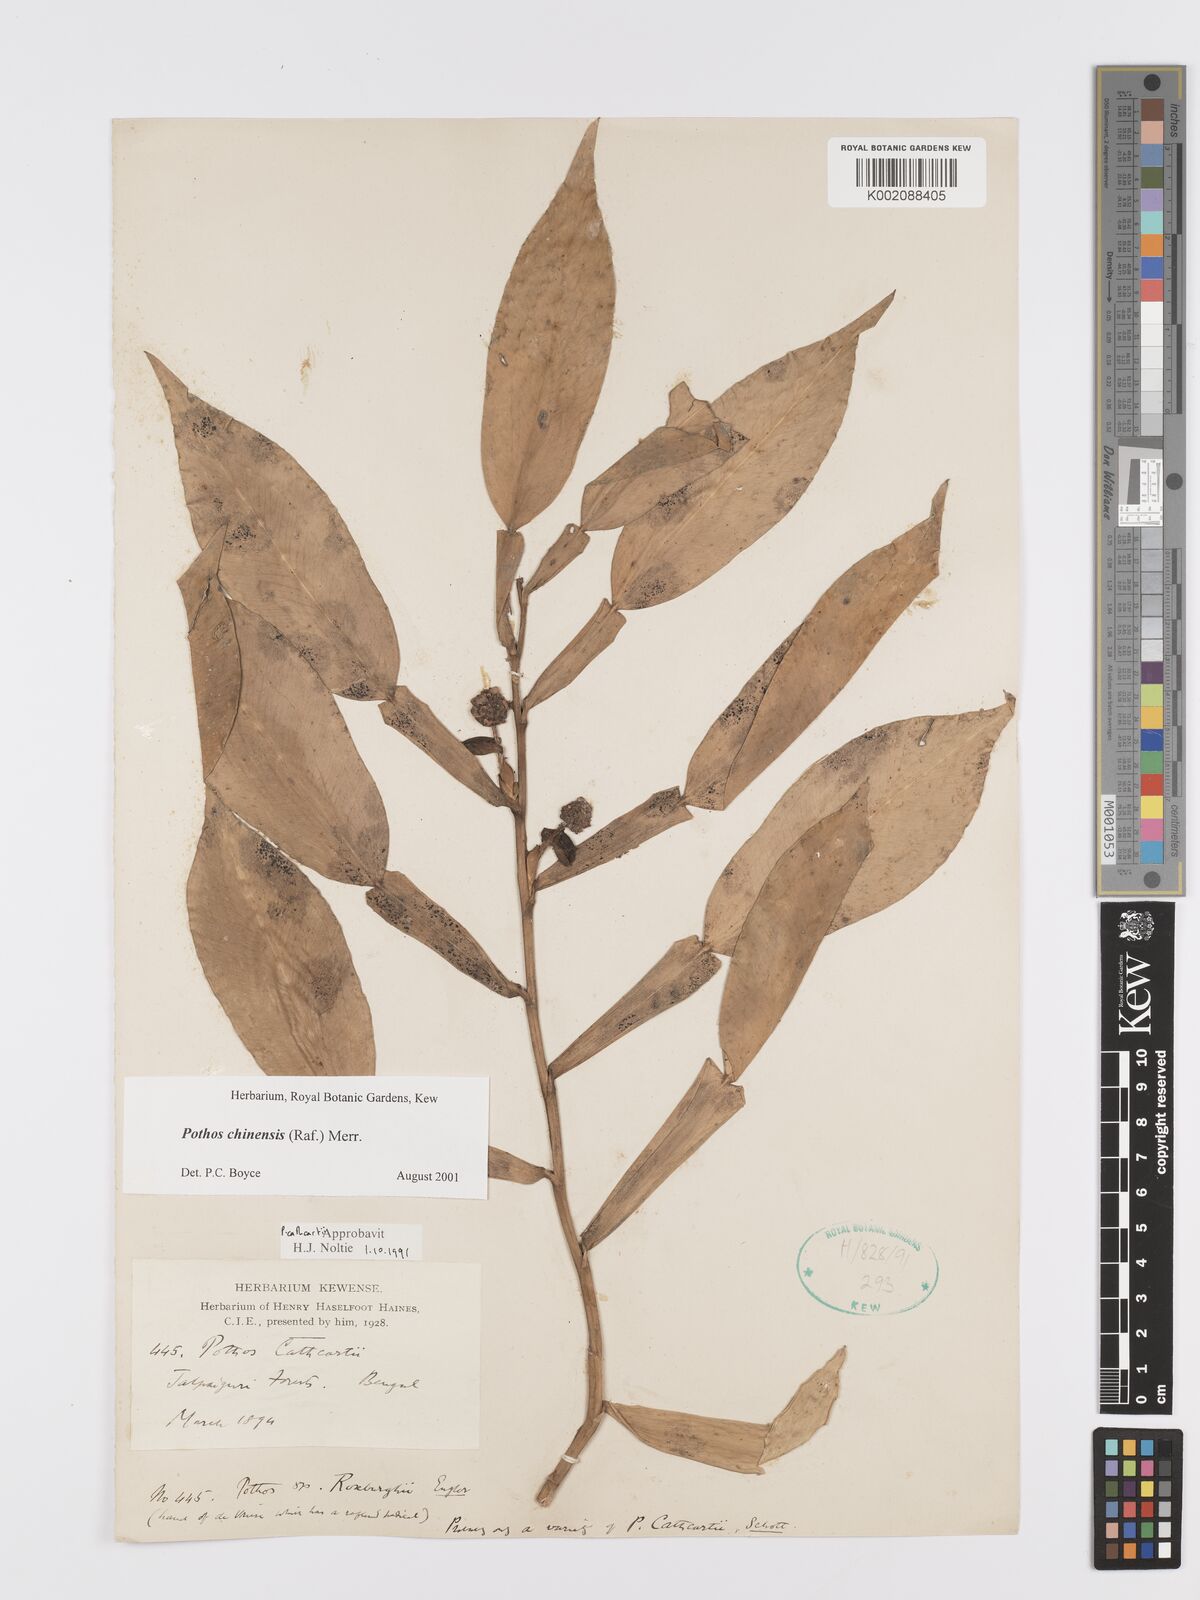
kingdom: Plantae
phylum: Tracheophyta
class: Liliopsida
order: Alismatales
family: Araceae
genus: Pothos
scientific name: Pothos chinensis
